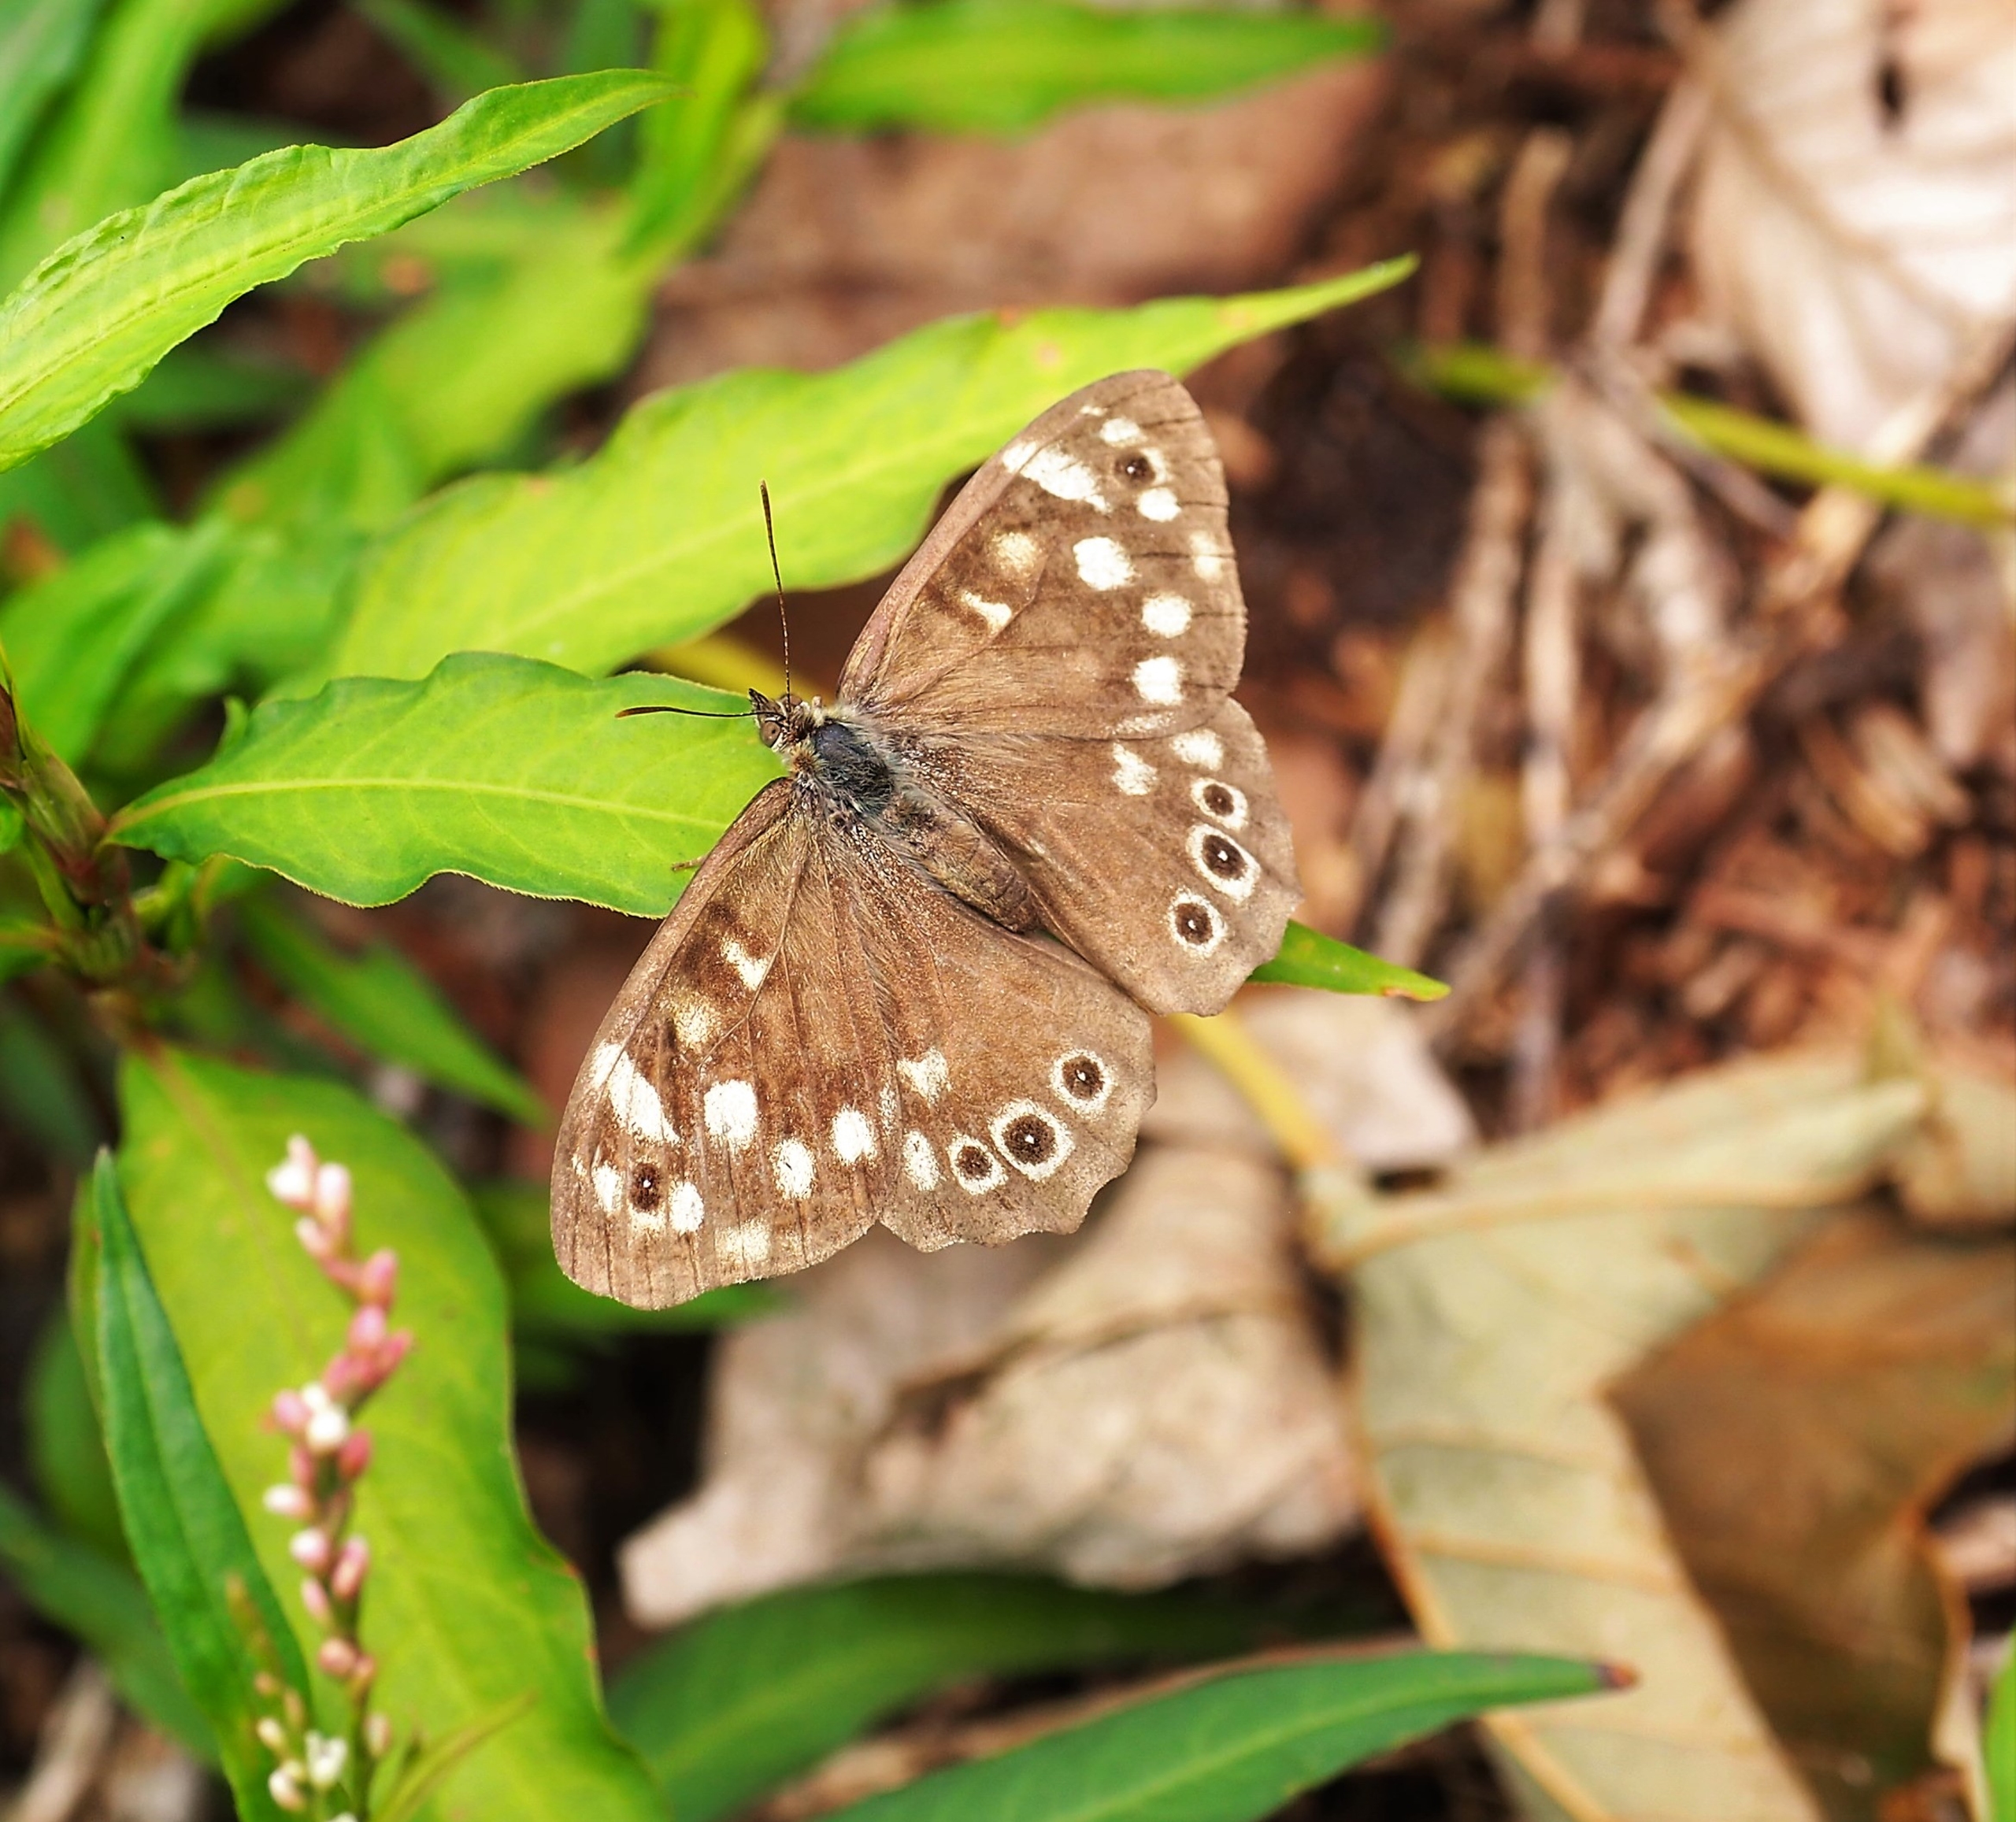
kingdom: Animalia
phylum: Arthropoda
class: Insecta
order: Lepidoptera
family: Nymphalidae
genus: Pararge
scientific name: Pararge aegeria
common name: Skovrandøje
